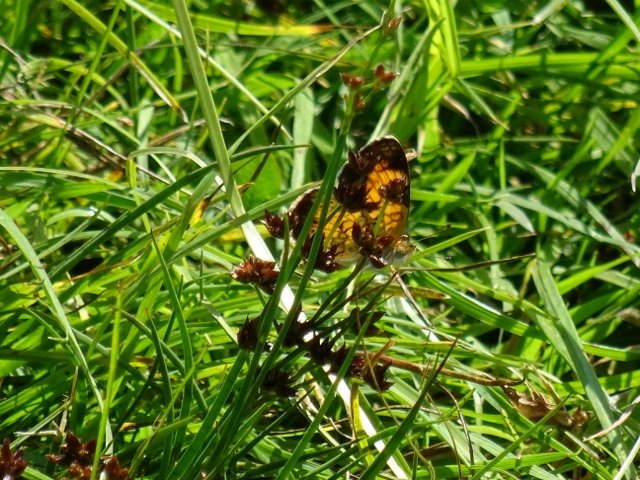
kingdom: Animalia
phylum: Arthropoda
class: Insecta
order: Lepidoptera
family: Nymphalidae
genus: Phyciodes
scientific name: Phyciodes
